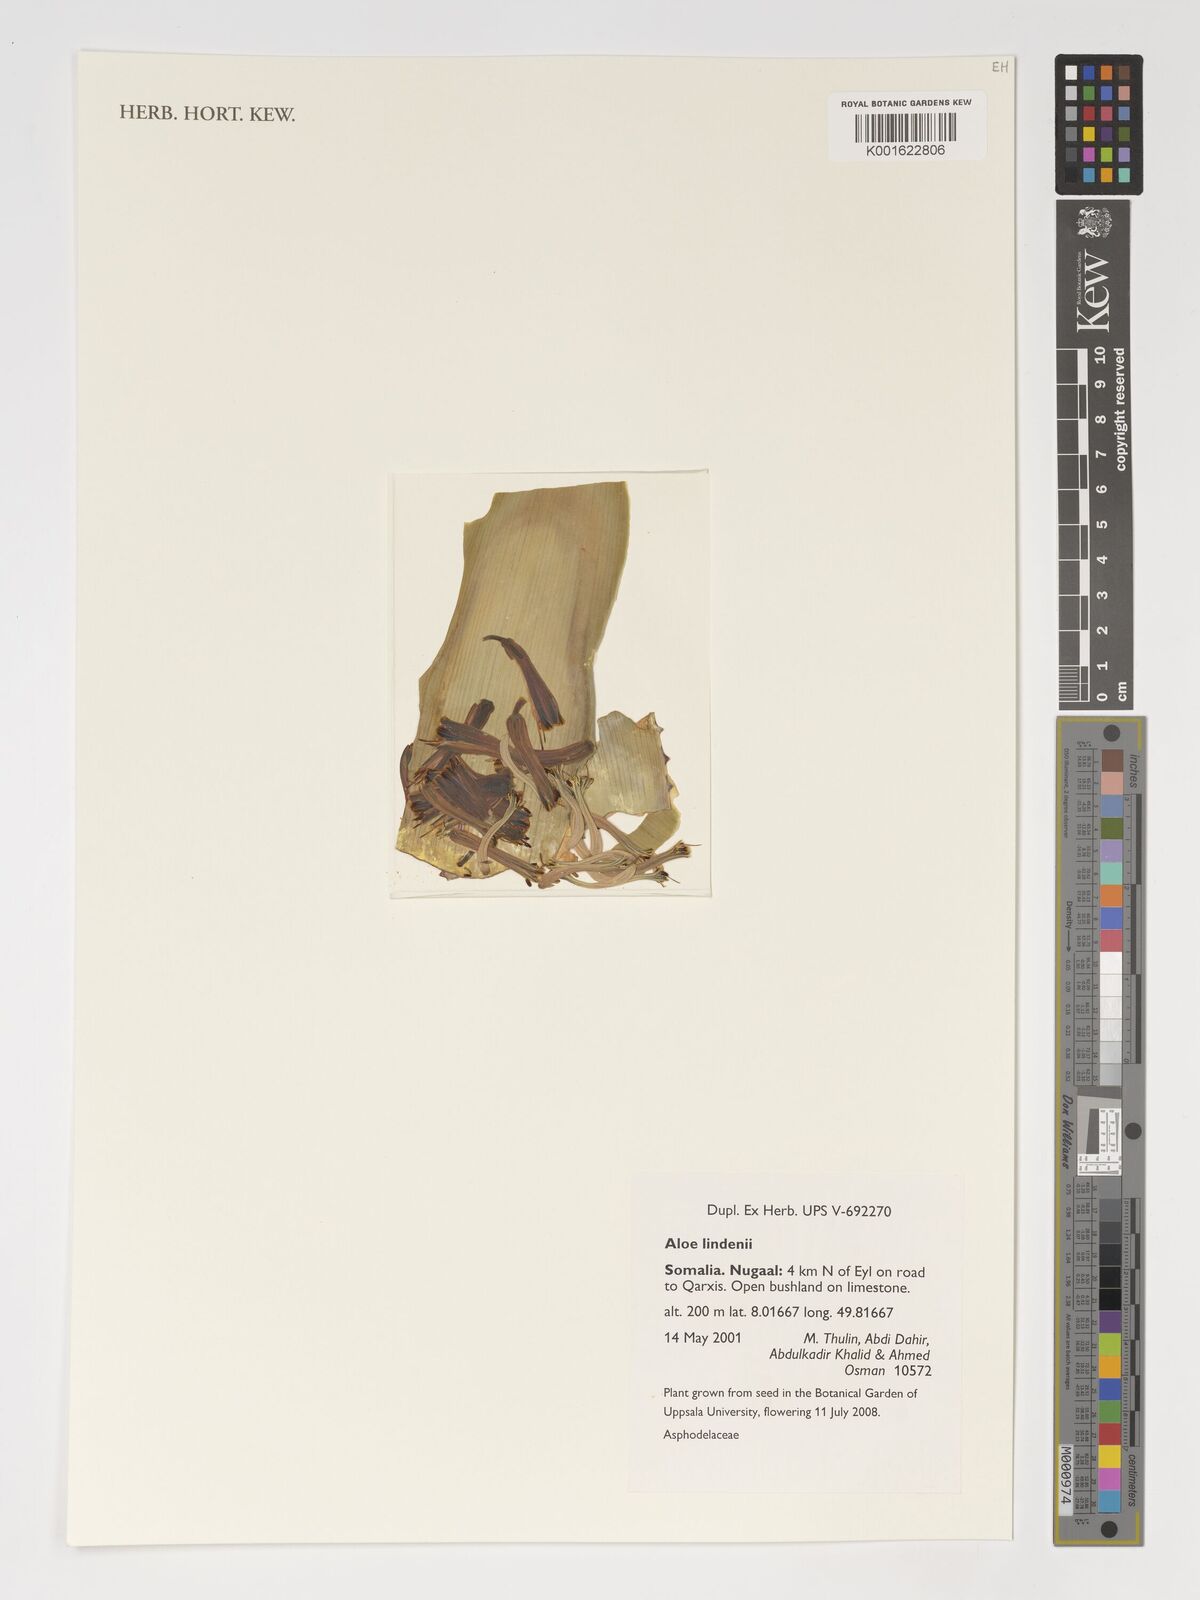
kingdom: Plantae
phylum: Tracheophyta
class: Liliopsida
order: Asparagales
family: Asphodelaceae
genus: Aloe
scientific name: Aloe lindenii
